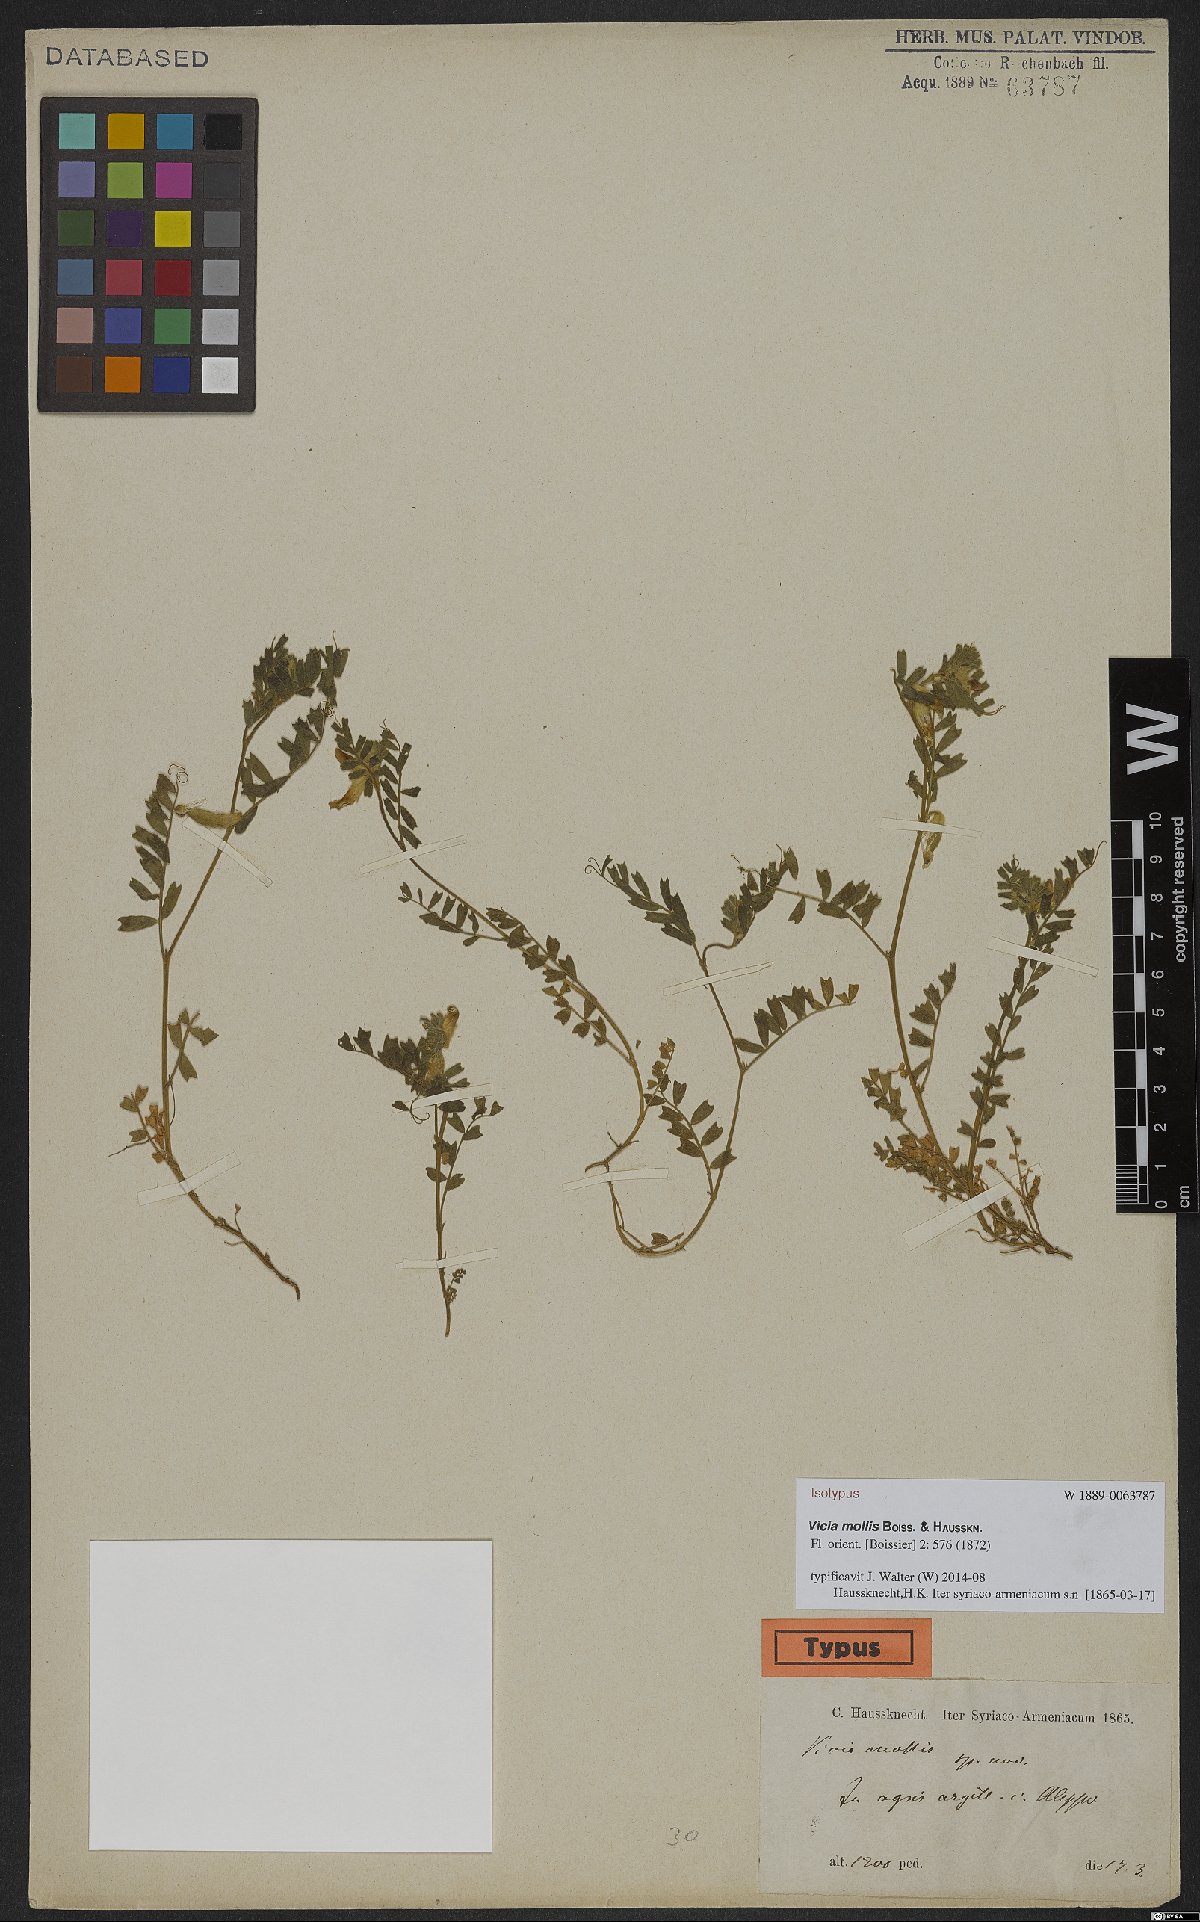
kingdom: Plantae
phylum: Tracheophyta
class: Magnoliopsida
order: Fabales
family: Fabaceae
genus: Vicia
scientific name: Vicia mollis
